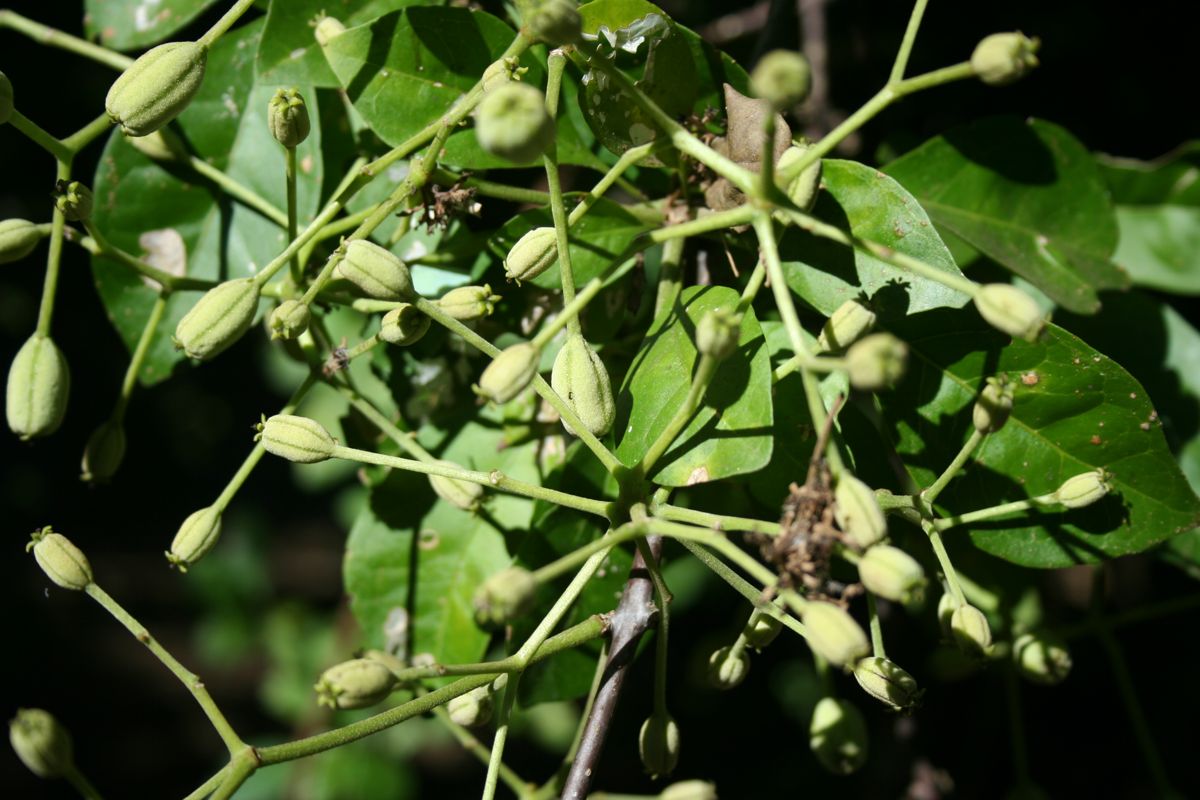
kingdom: Plantae
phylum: Tracheophyta
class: Magnoliopsida
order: Caryophyllales
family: Nyctaginaceae
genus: Pisonia
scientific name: Pisonia macranthocarpa
